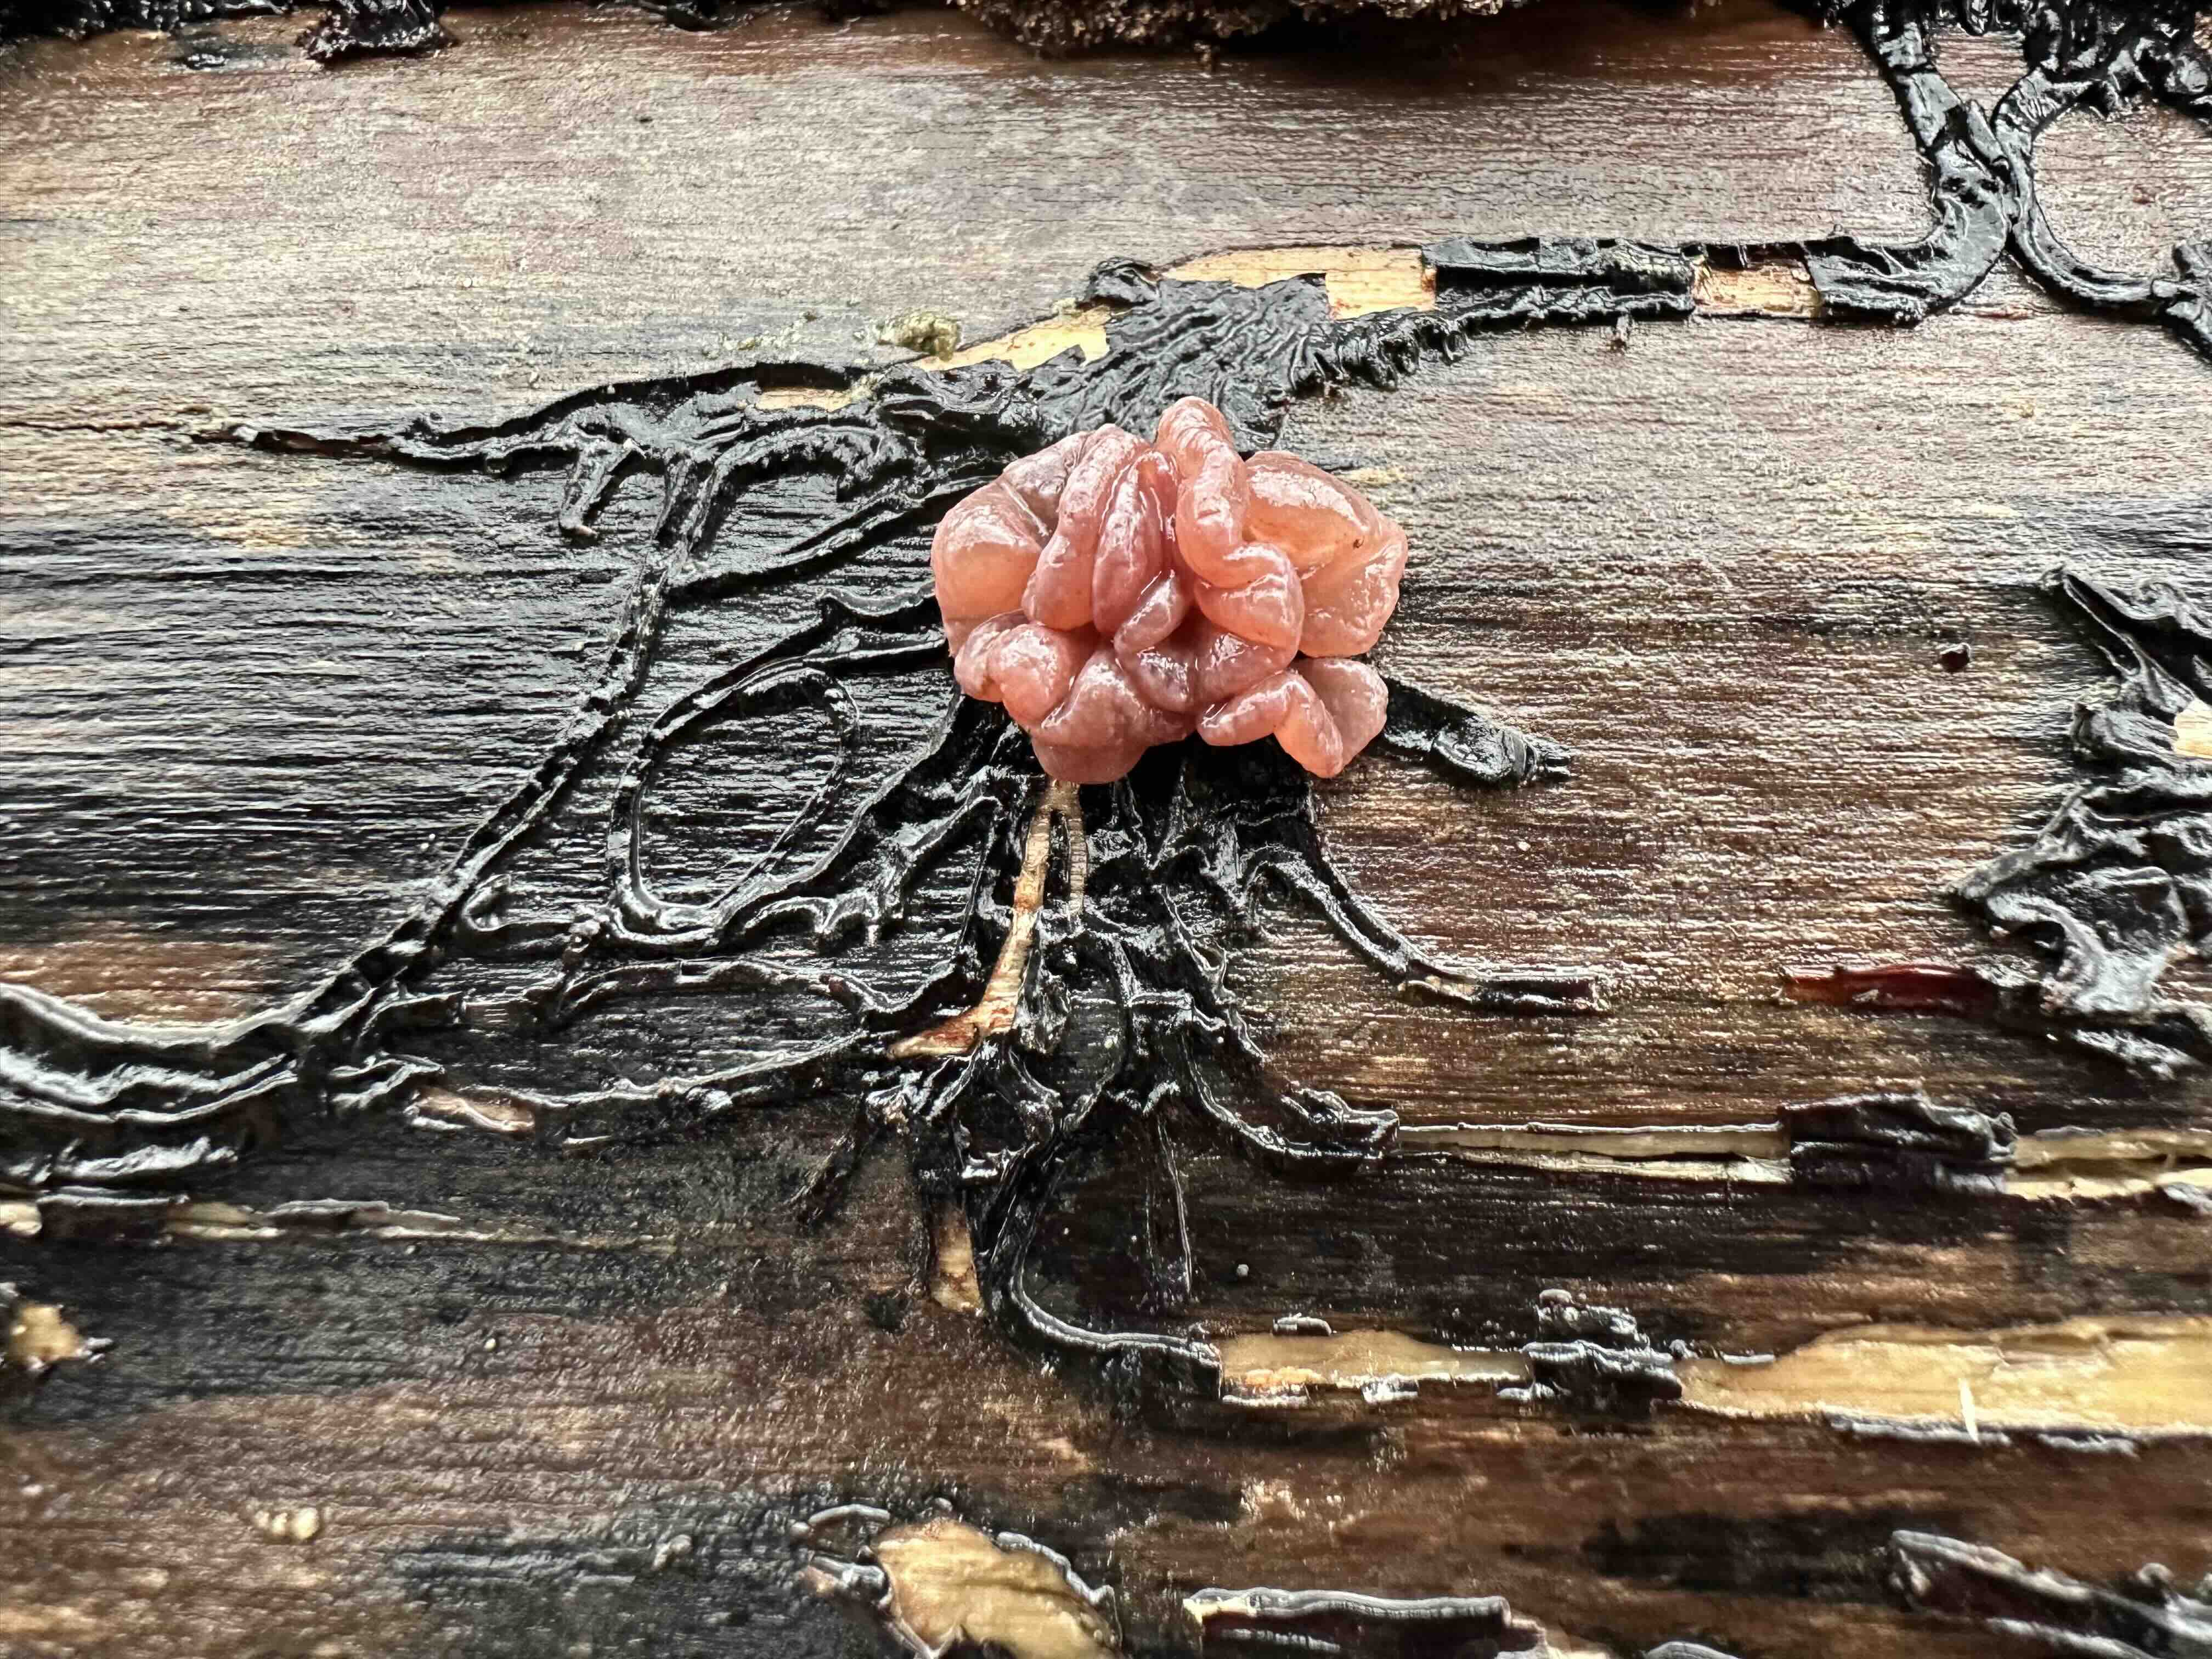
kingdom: Fungi
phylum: Ascomycota
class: Leotiomycetes
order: Helotiales
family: Gelatinodiscaceae
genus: Ascocoryne
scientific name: Ascocoryne sarcoides
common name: rødlilla sejskive
